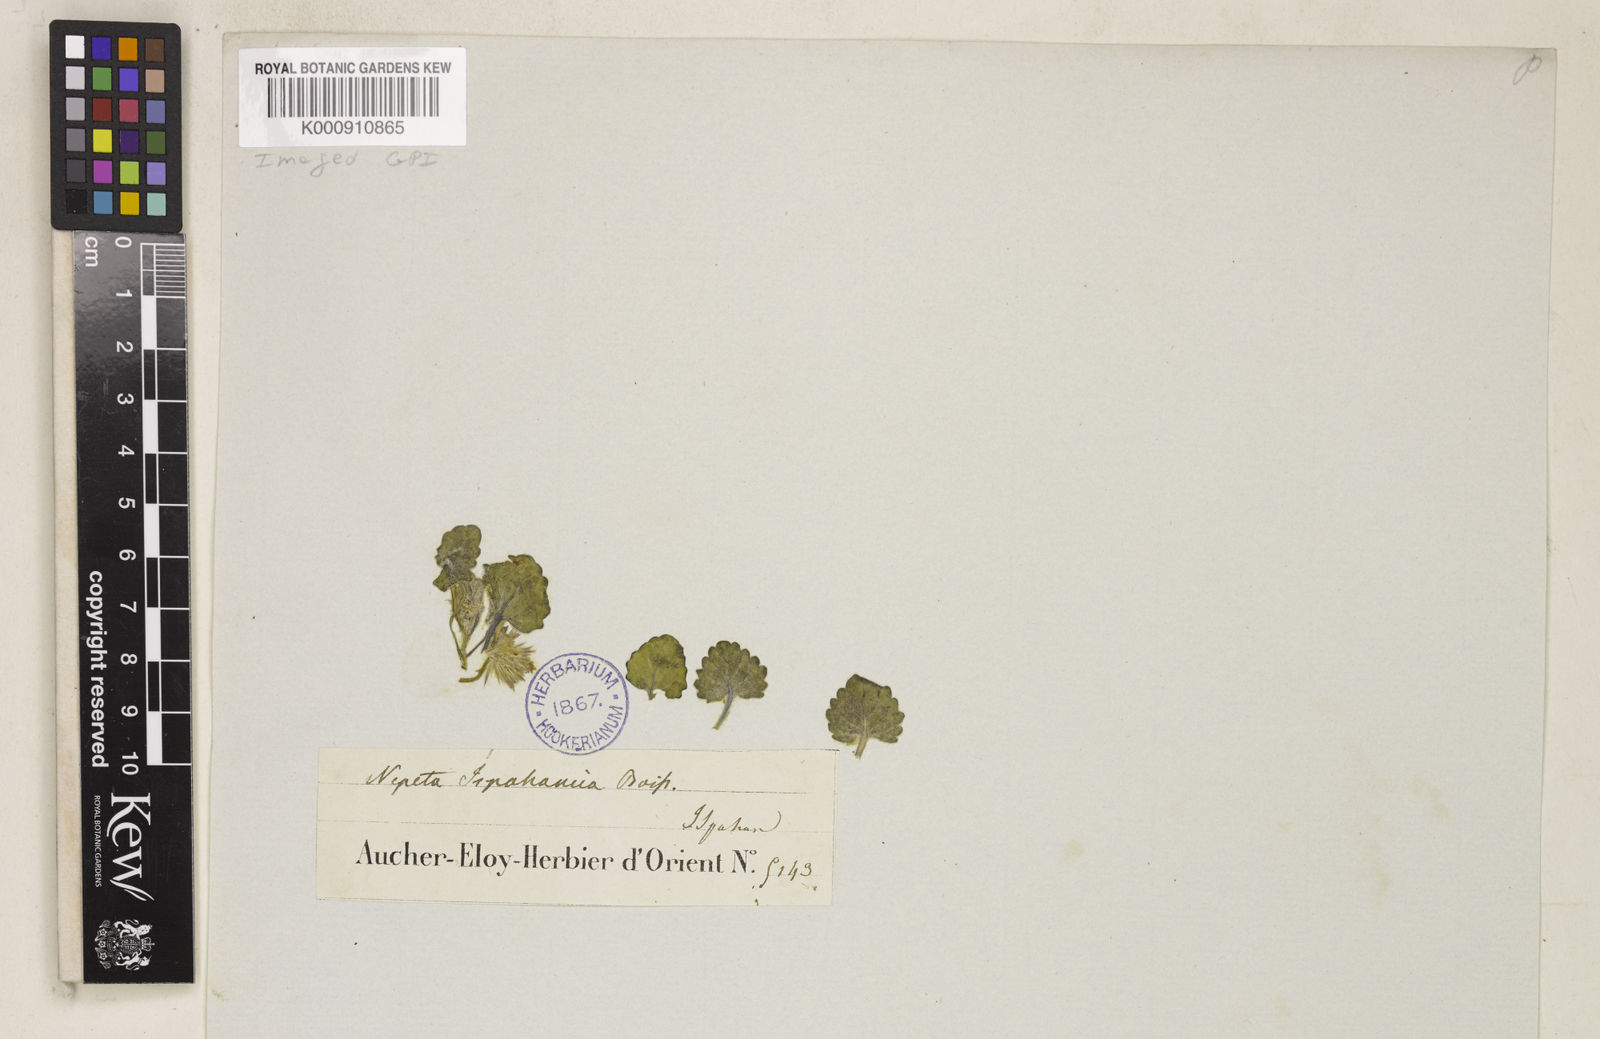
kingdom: Plantae
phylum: Tracheophyta
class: Magnoliopsida
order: Lamiales
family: Lamiaceae
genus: Nepeta
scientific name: Nepeta ispahanica
